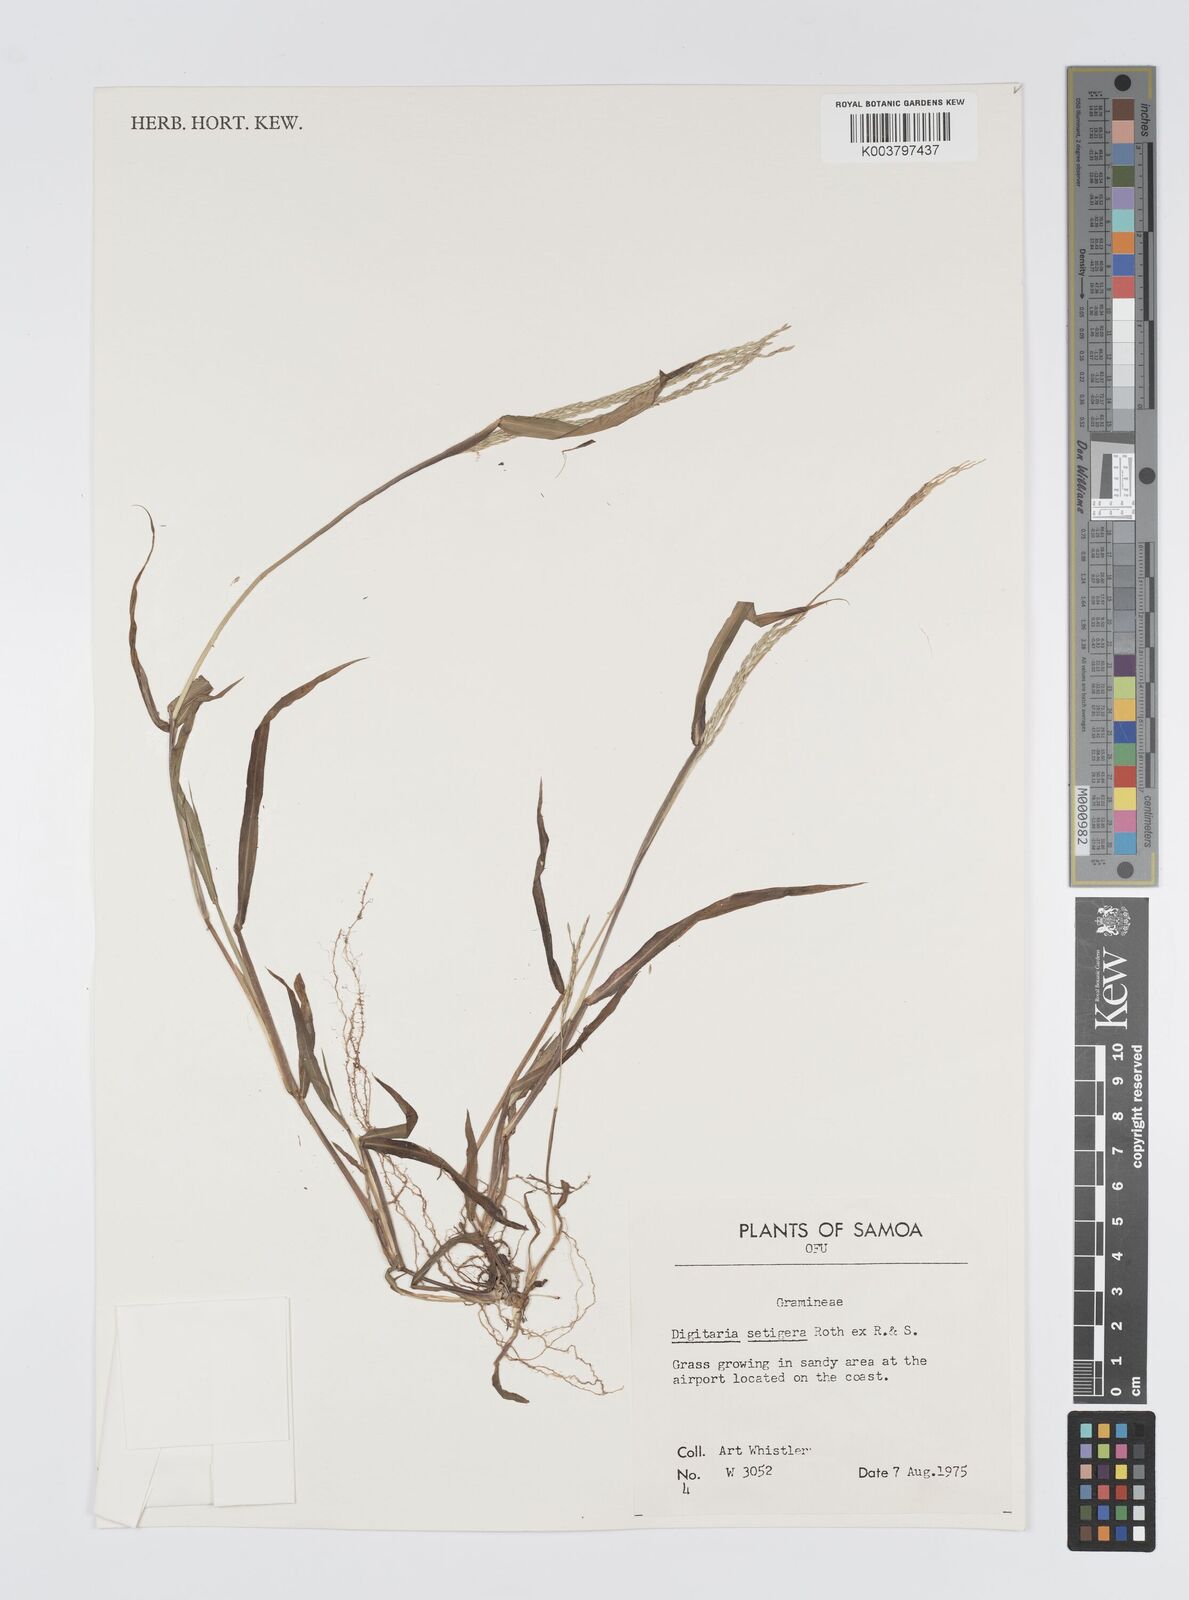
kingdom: Plantae
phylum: Tracheophyta
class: Liliopsida
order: Poales
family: Poaceae
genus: Digitaria
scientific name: Digitaria setigera
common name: East indian crabgrass
